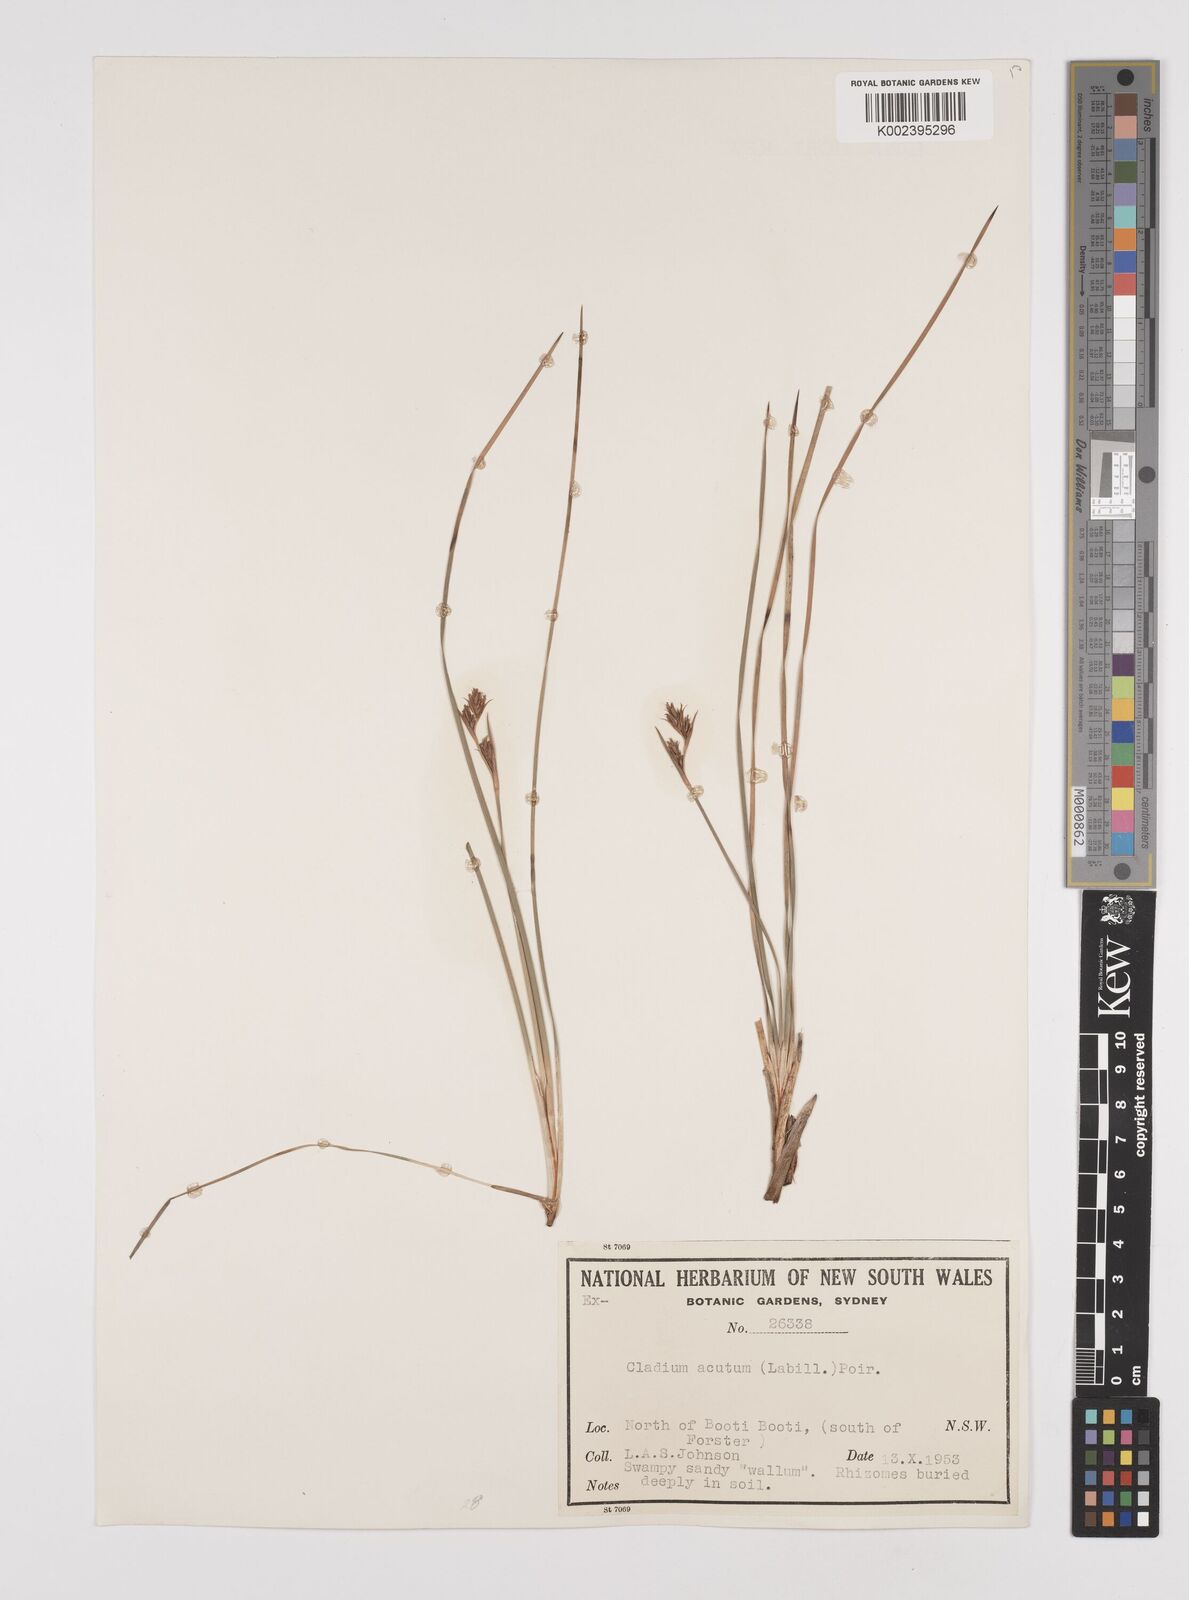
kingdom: Plantae
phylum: Tracheophyta
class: Liliopsida
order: Poales
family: Cyperaceae
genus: Machaerina
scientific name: Machaerina acuta
